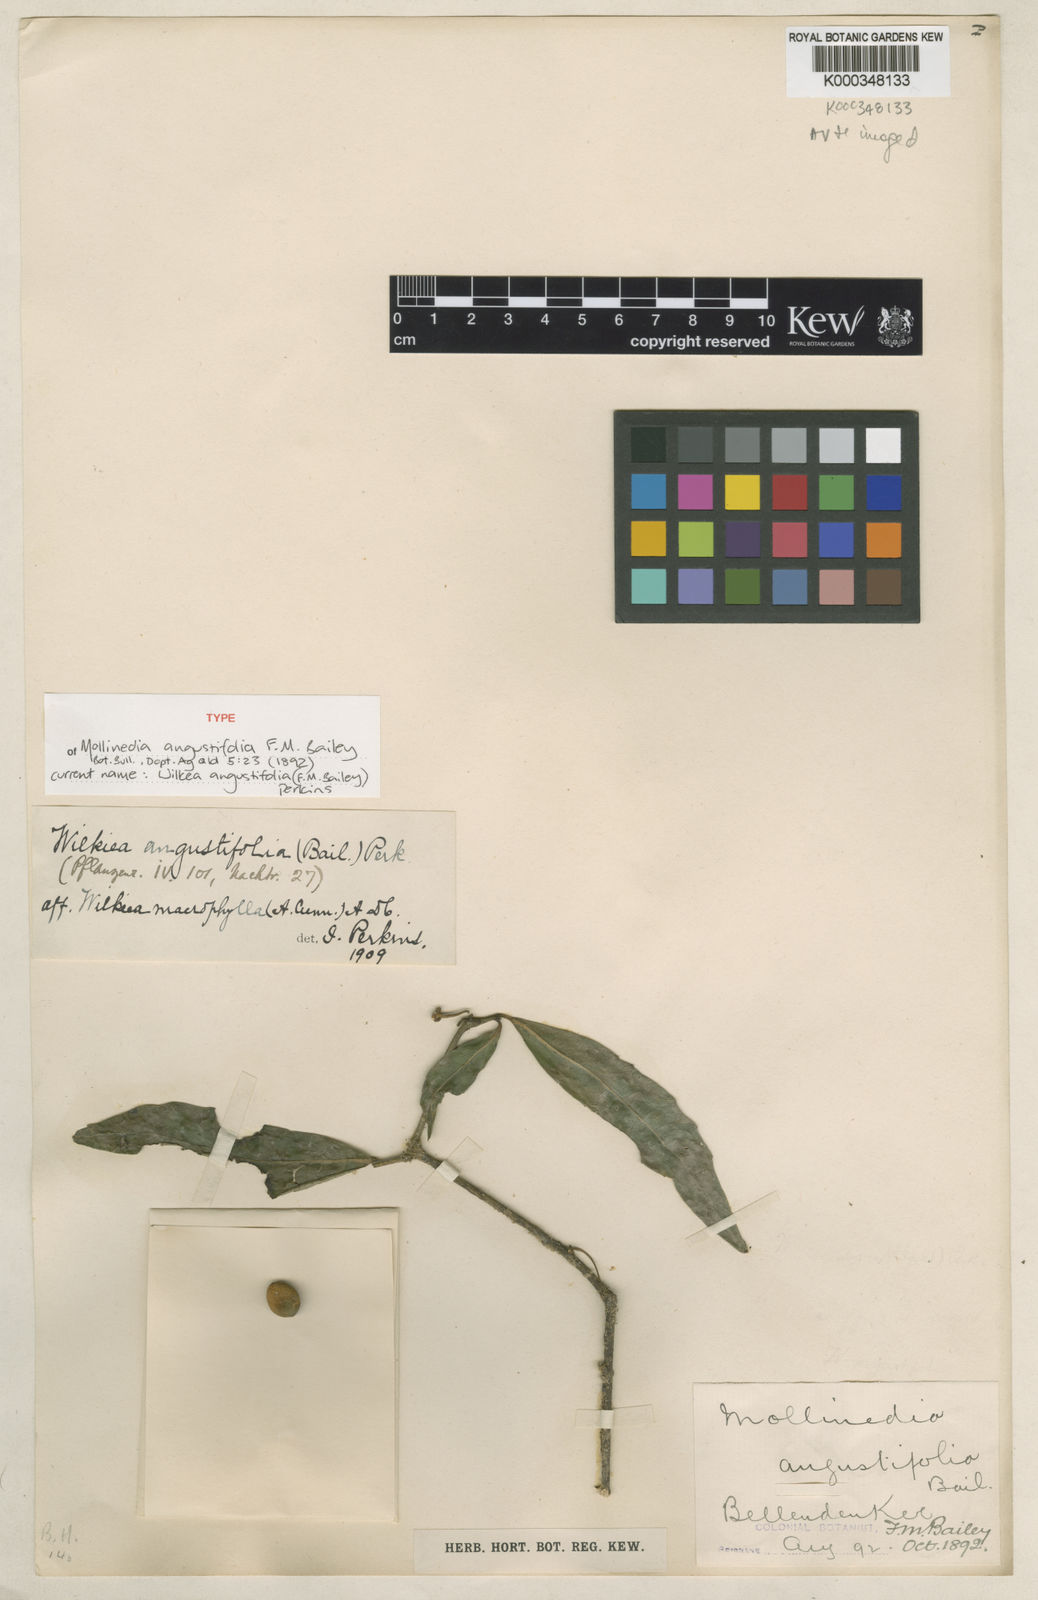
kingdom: Plantae
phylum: Tracheophyta
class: Magnoliopsida
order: Laurales
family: Monimiaceae
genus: Wilkiea
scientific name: Wilkiea angustifolia
